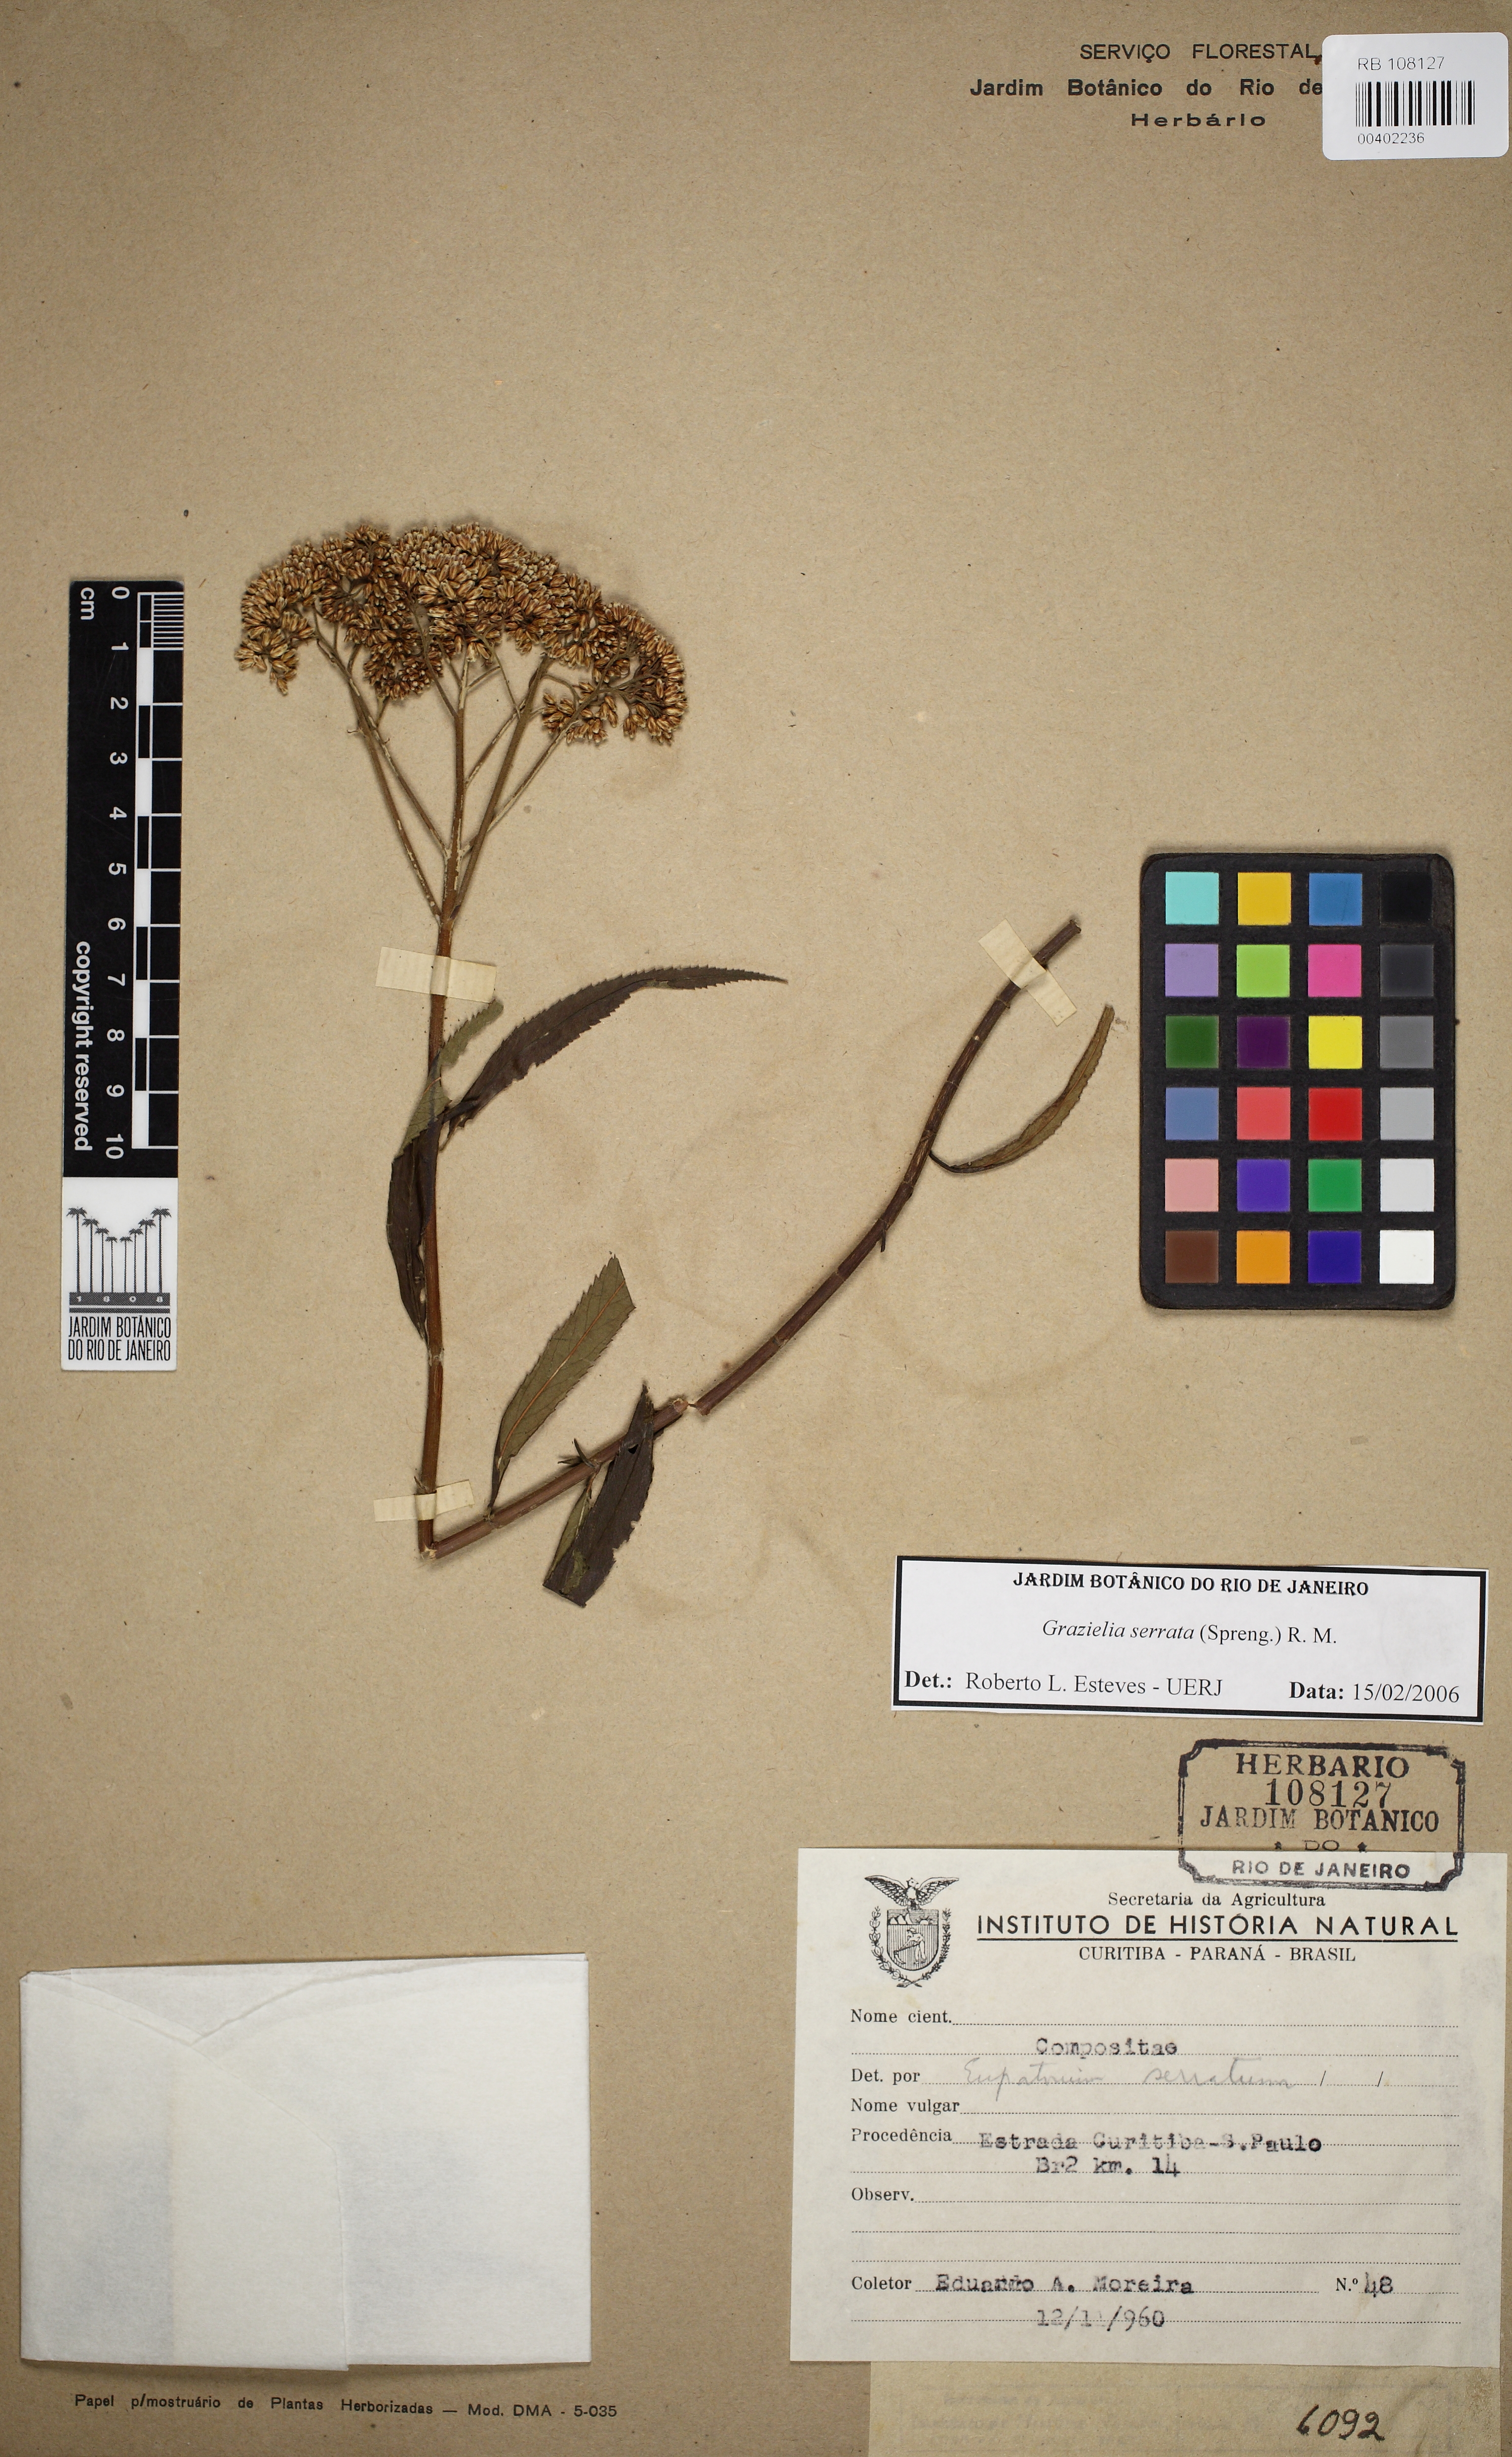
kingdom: Plantae
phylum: Tracheophyta
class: Magnoliopsida
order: Asterales
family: Asteraceae
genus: Grazielia
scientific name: Grazielia serrata
